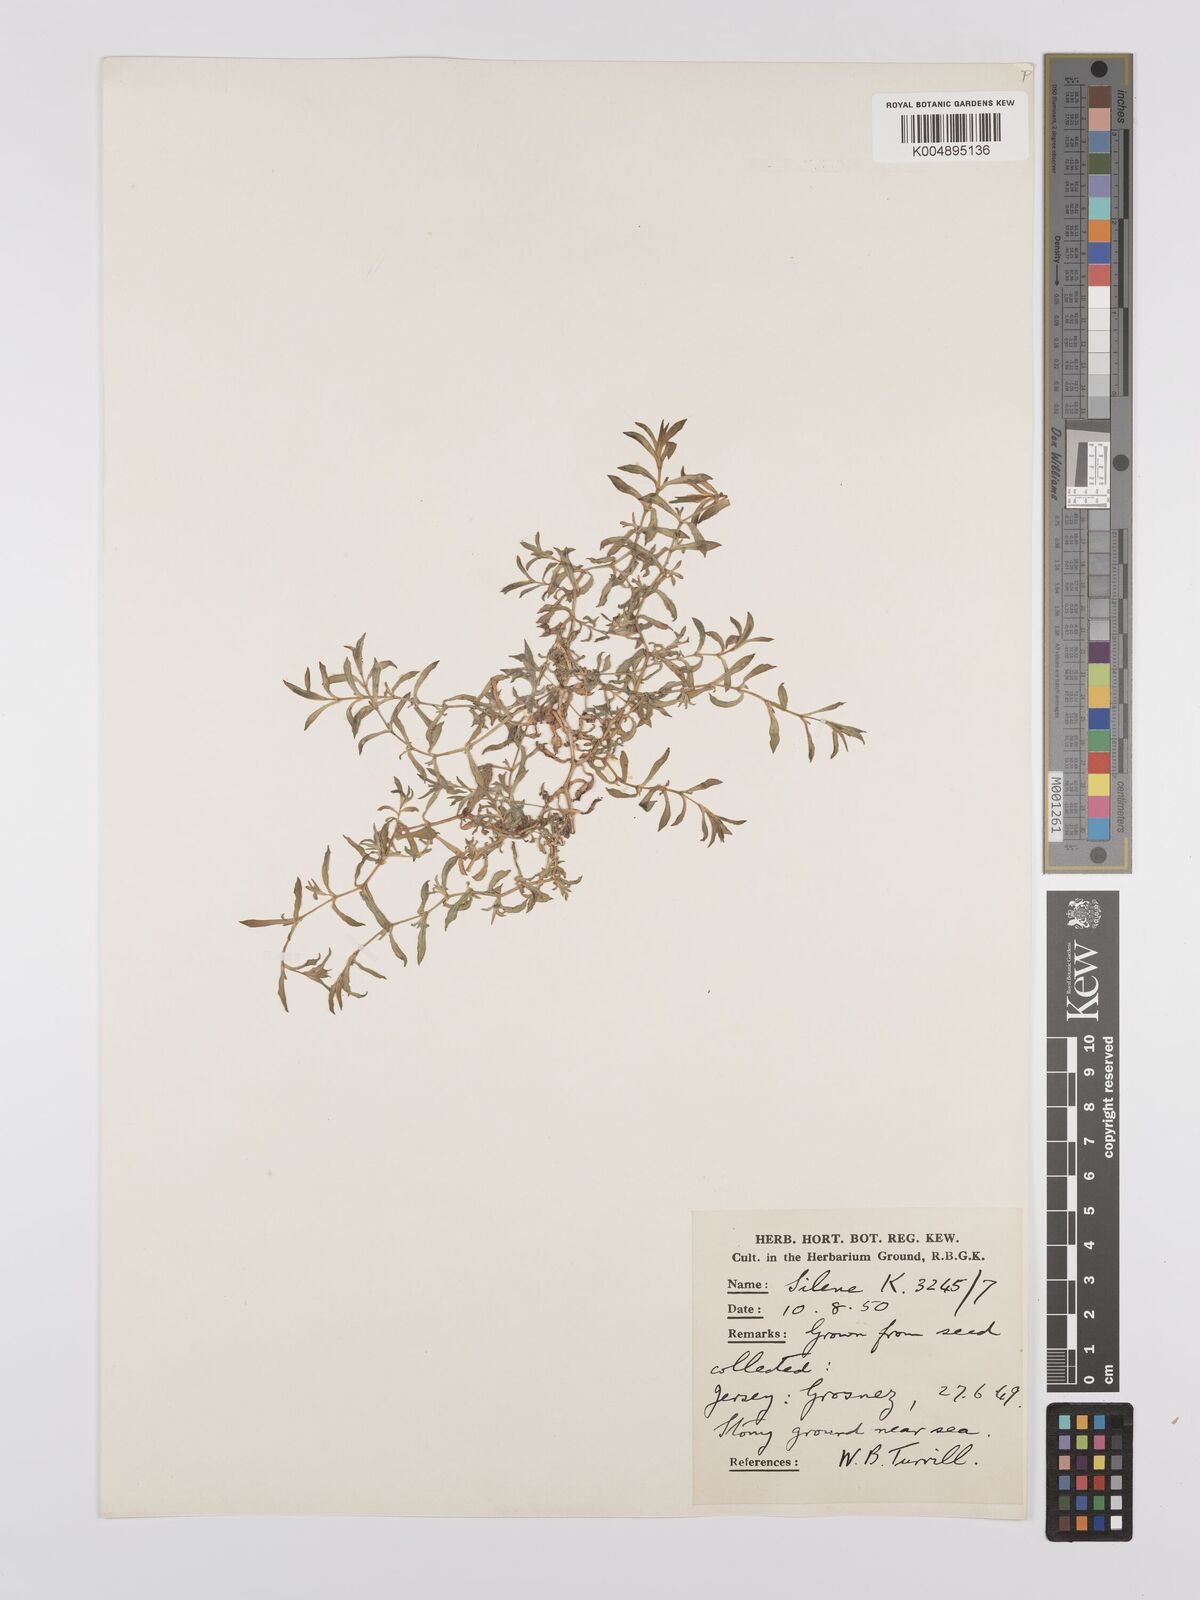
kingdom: Plantae
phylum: Tracheophyta
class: Magnoliopsida
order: Caryophyllales
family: Caryophyllaceae
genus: Silene
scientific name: Silene uniflora
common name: Sea campion
